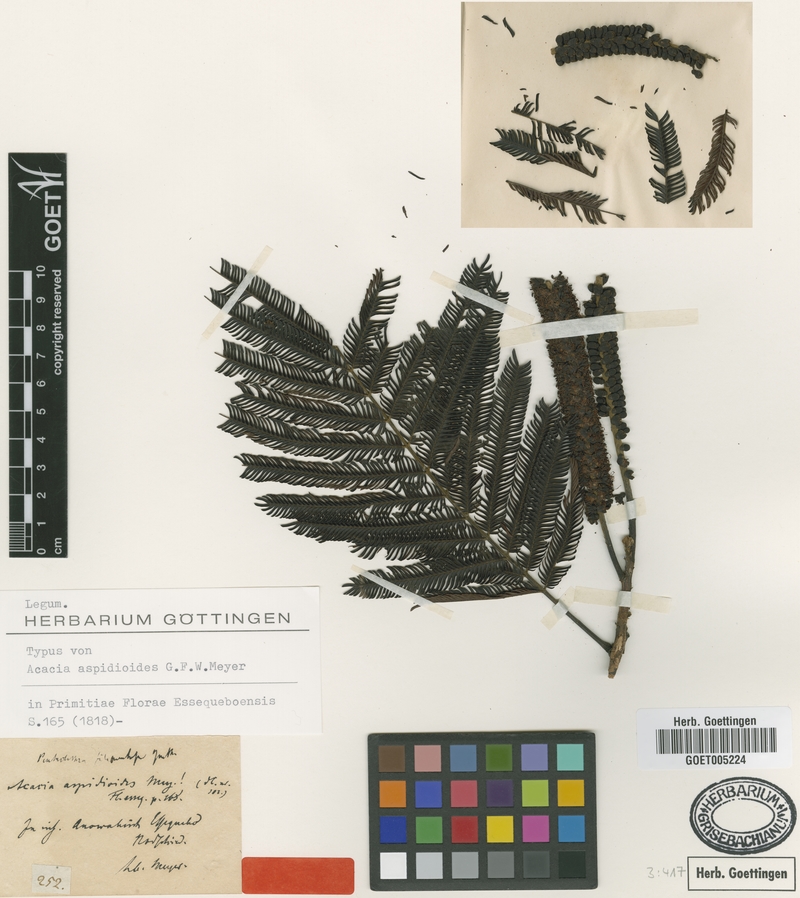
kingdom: Plantae
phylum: Tracheophyta
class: Magnoliopsida
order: Fabales
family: Fabaceae
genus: Pentaclethra
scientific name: Pentaclethra macroloba
